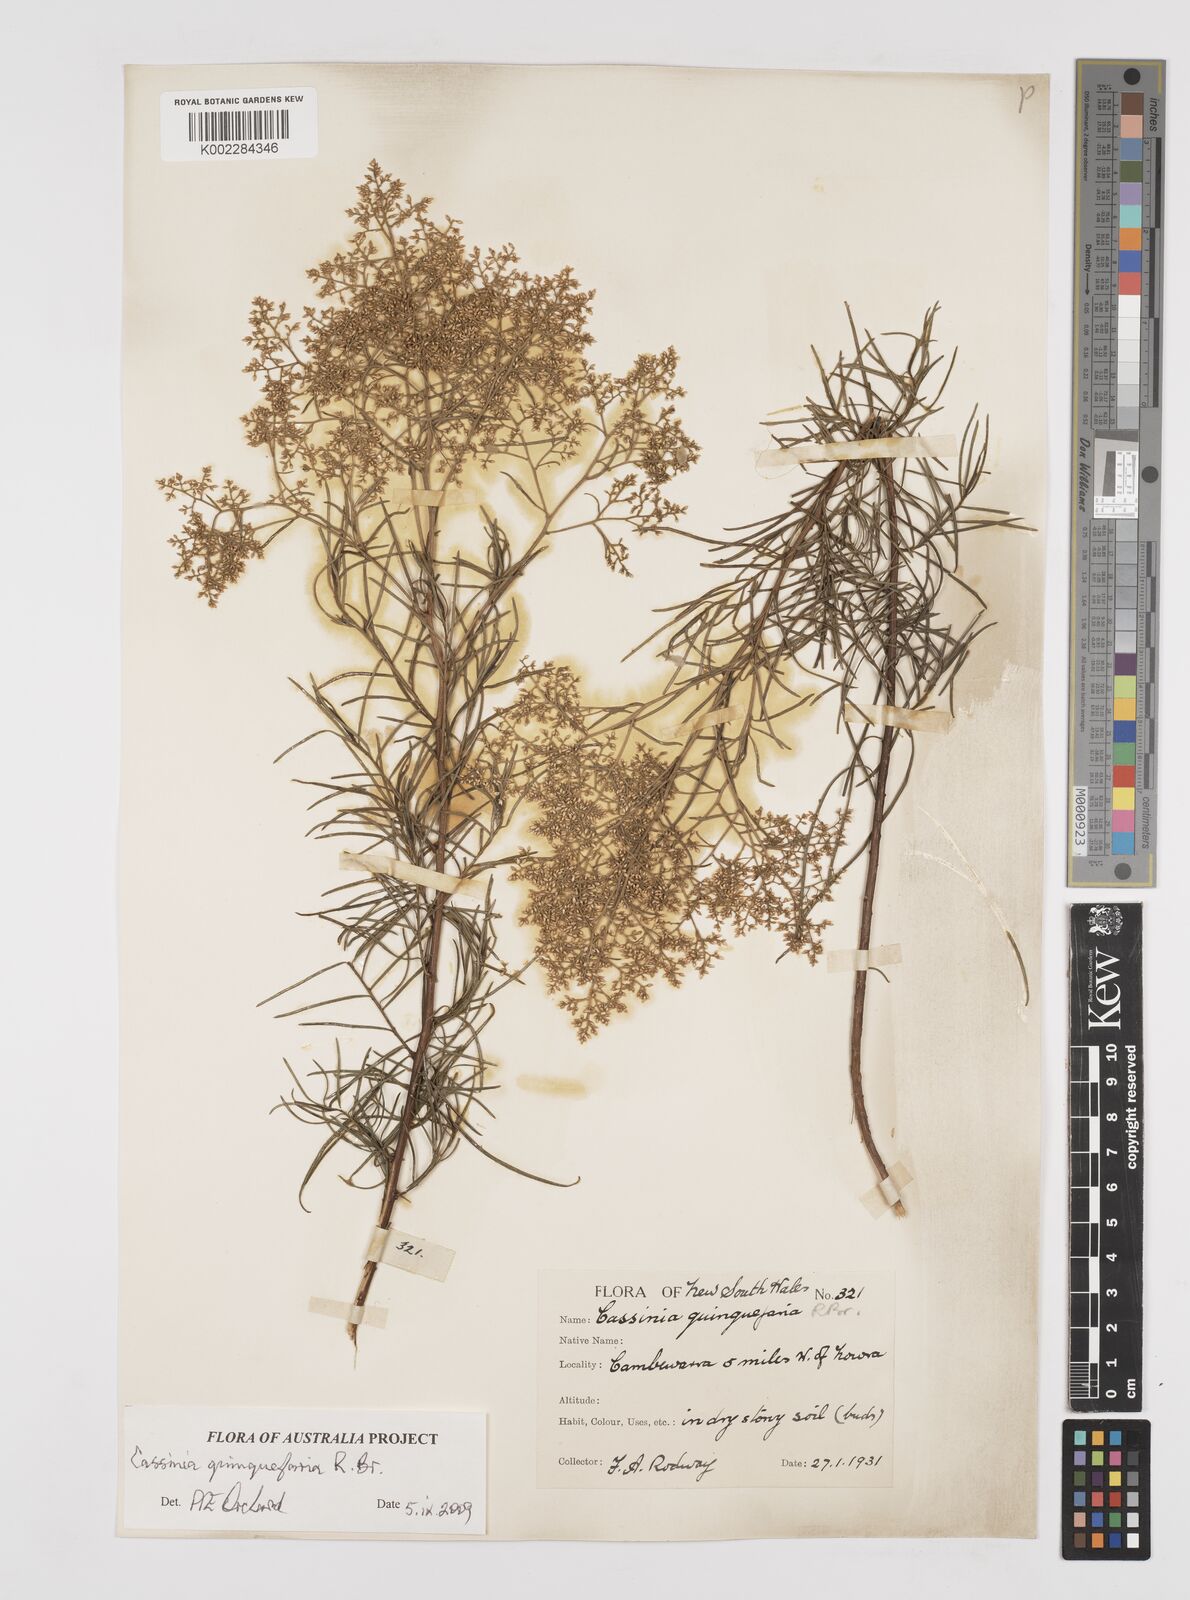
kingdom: Plantae
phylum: Tracheophyta
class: Magnoliopsida
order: Asterales
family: Asteraceae
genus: Cassinia
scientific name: Cassinia quinquefaria
